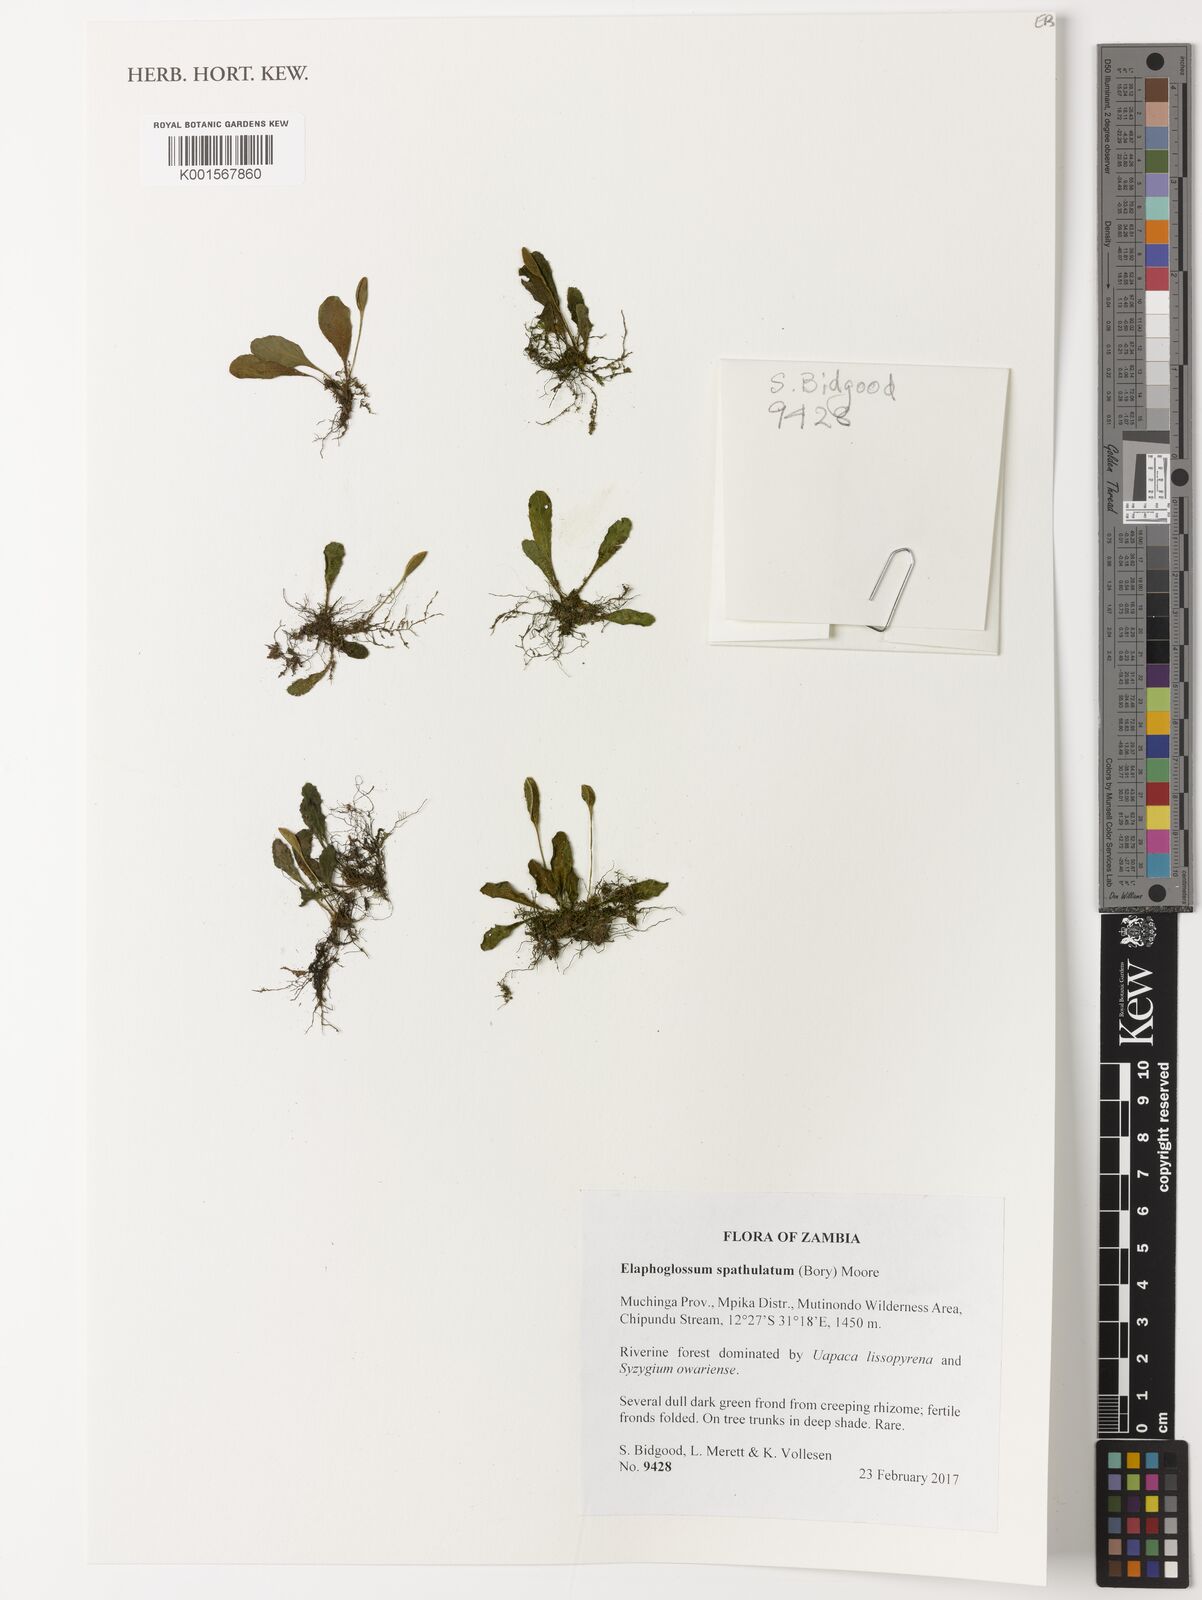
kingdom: Plantae
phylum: Tracheophyta
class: Polypodiopsida
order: Polypodiales
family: Dryopteridaceae
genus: Elaphoglossum
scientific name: Elaphoglossum spatulatum
